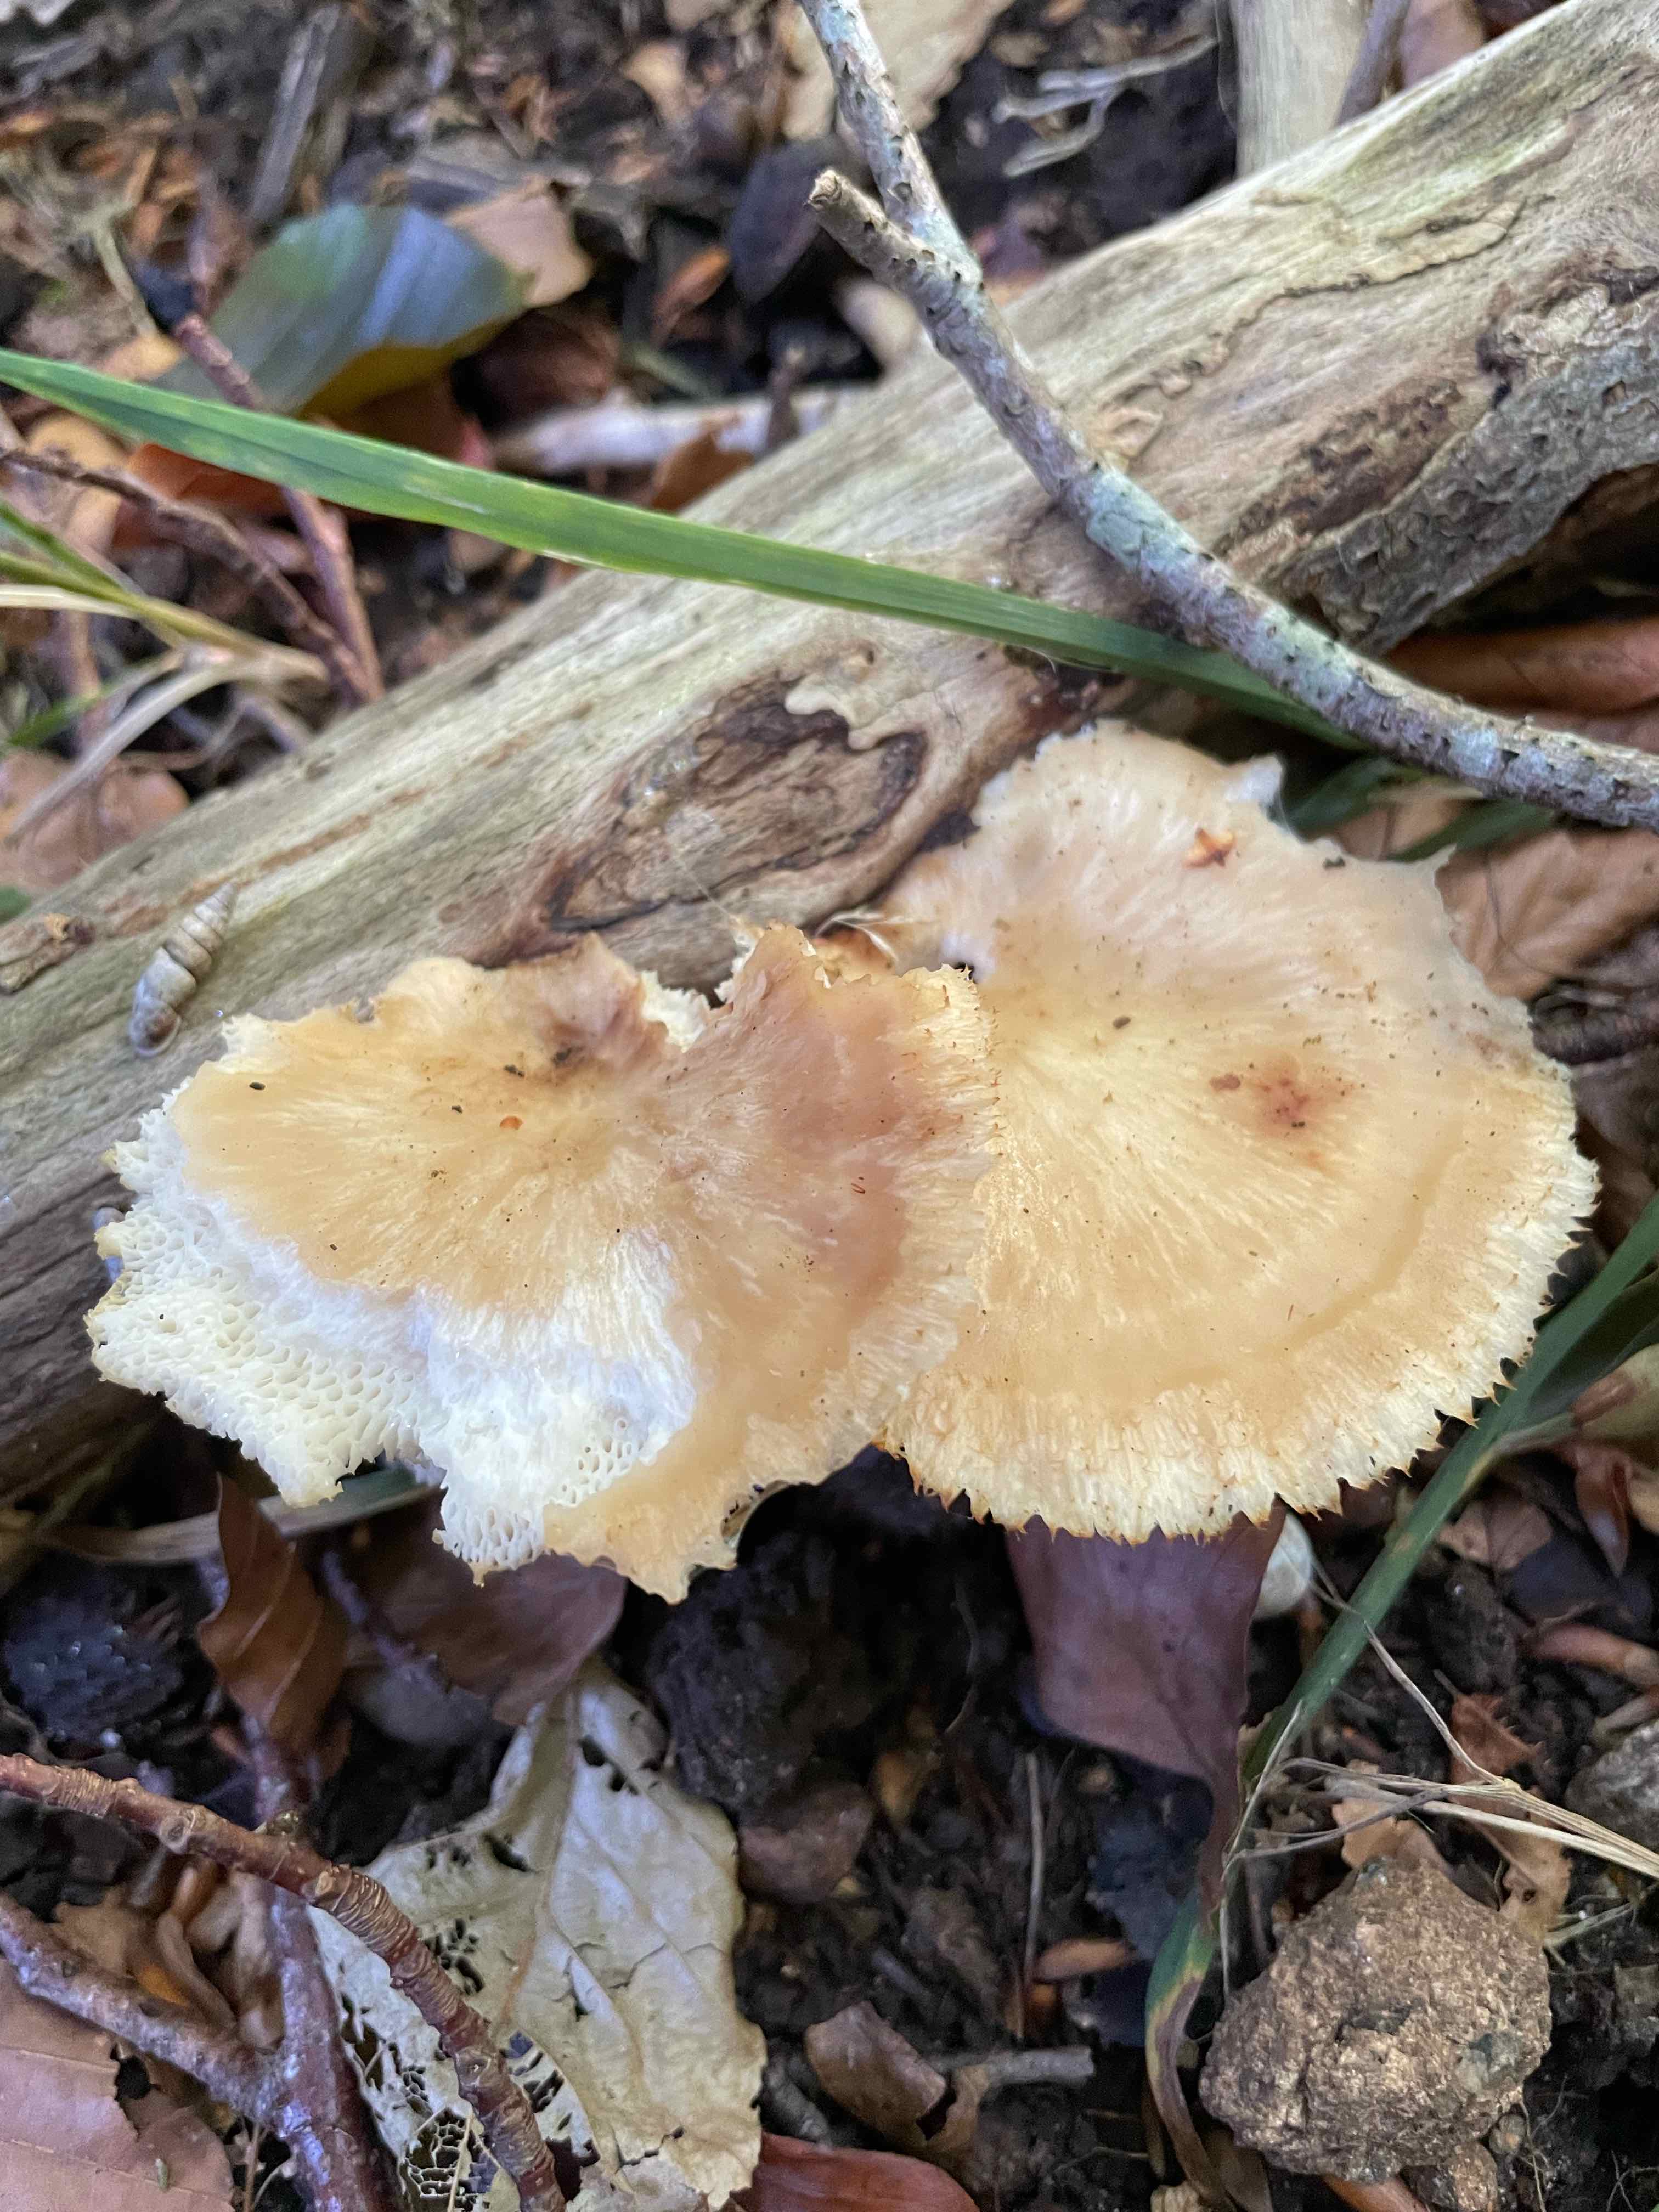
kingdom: Fungi
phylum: Basidiomycota
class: Agaricomycetes
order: Polyporales
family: Polyporaceae
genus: Polyporus
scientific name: Polyporus tuberaster
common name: knoldet stilkporesvamp
